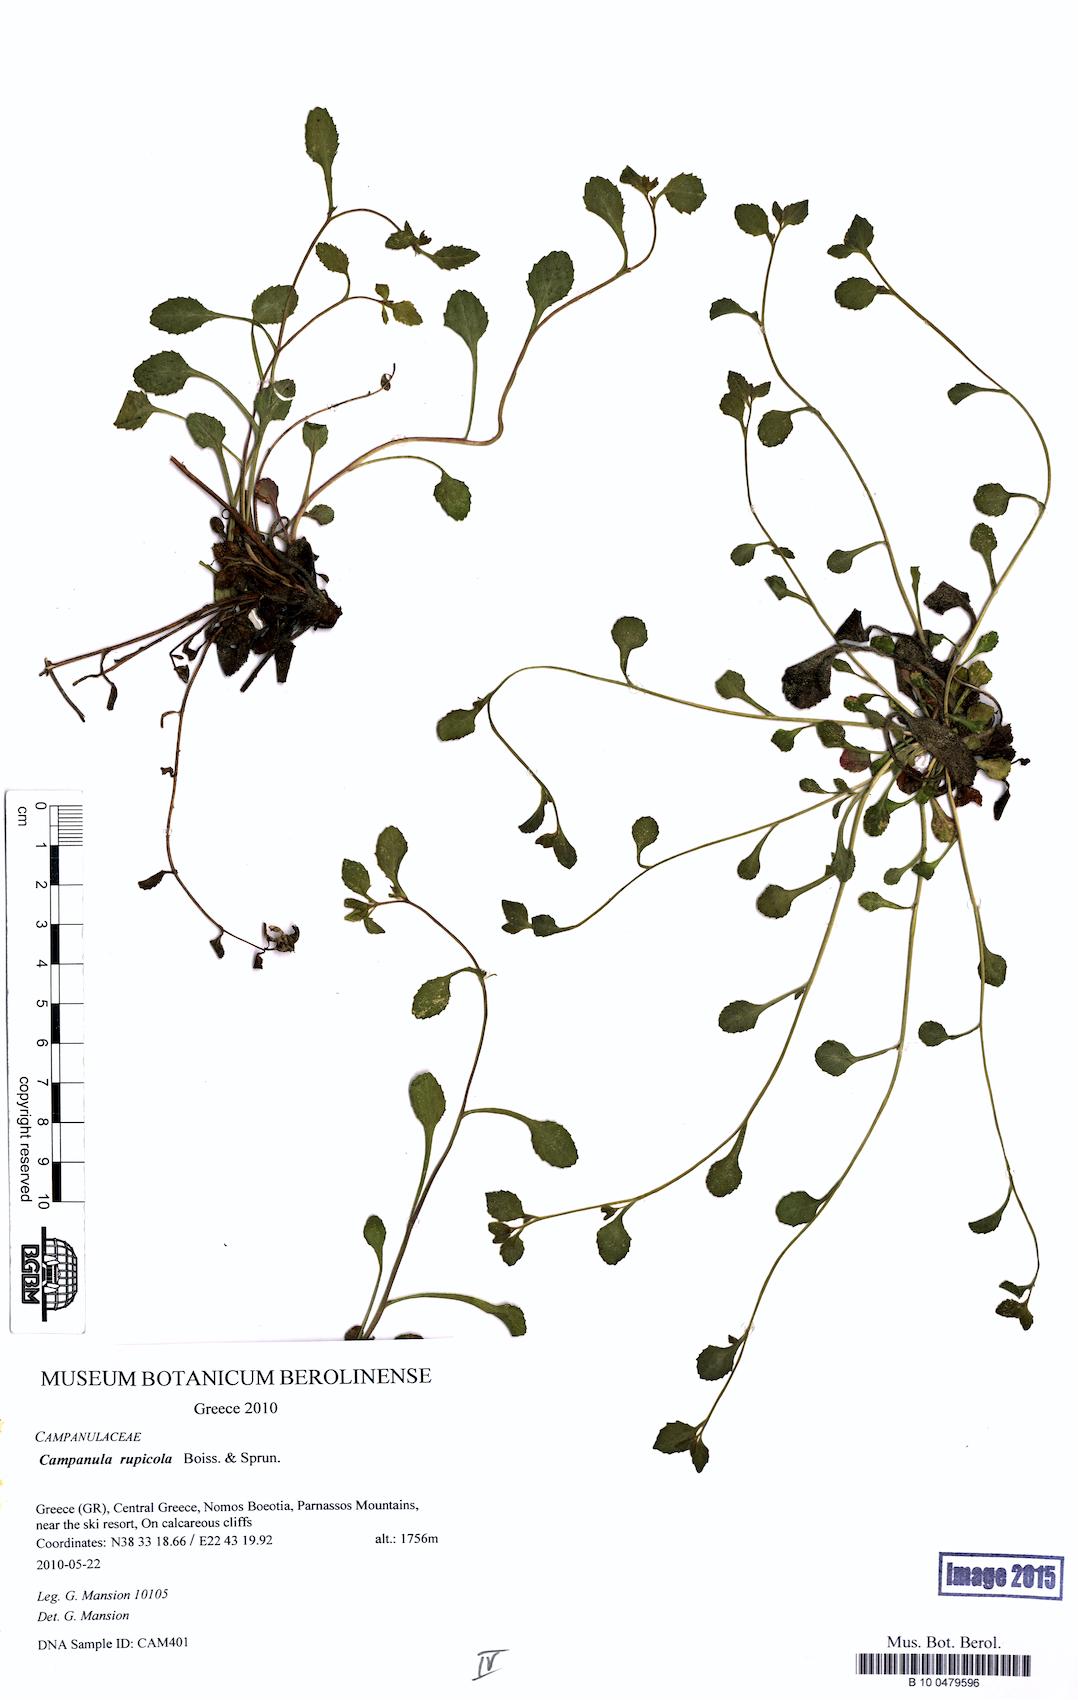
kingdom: Plantae
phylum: Tracheophyta
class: Magnoliopsida
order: Asterales
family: Campanulaceae
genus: Campanula
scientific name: Campanula rupicola
